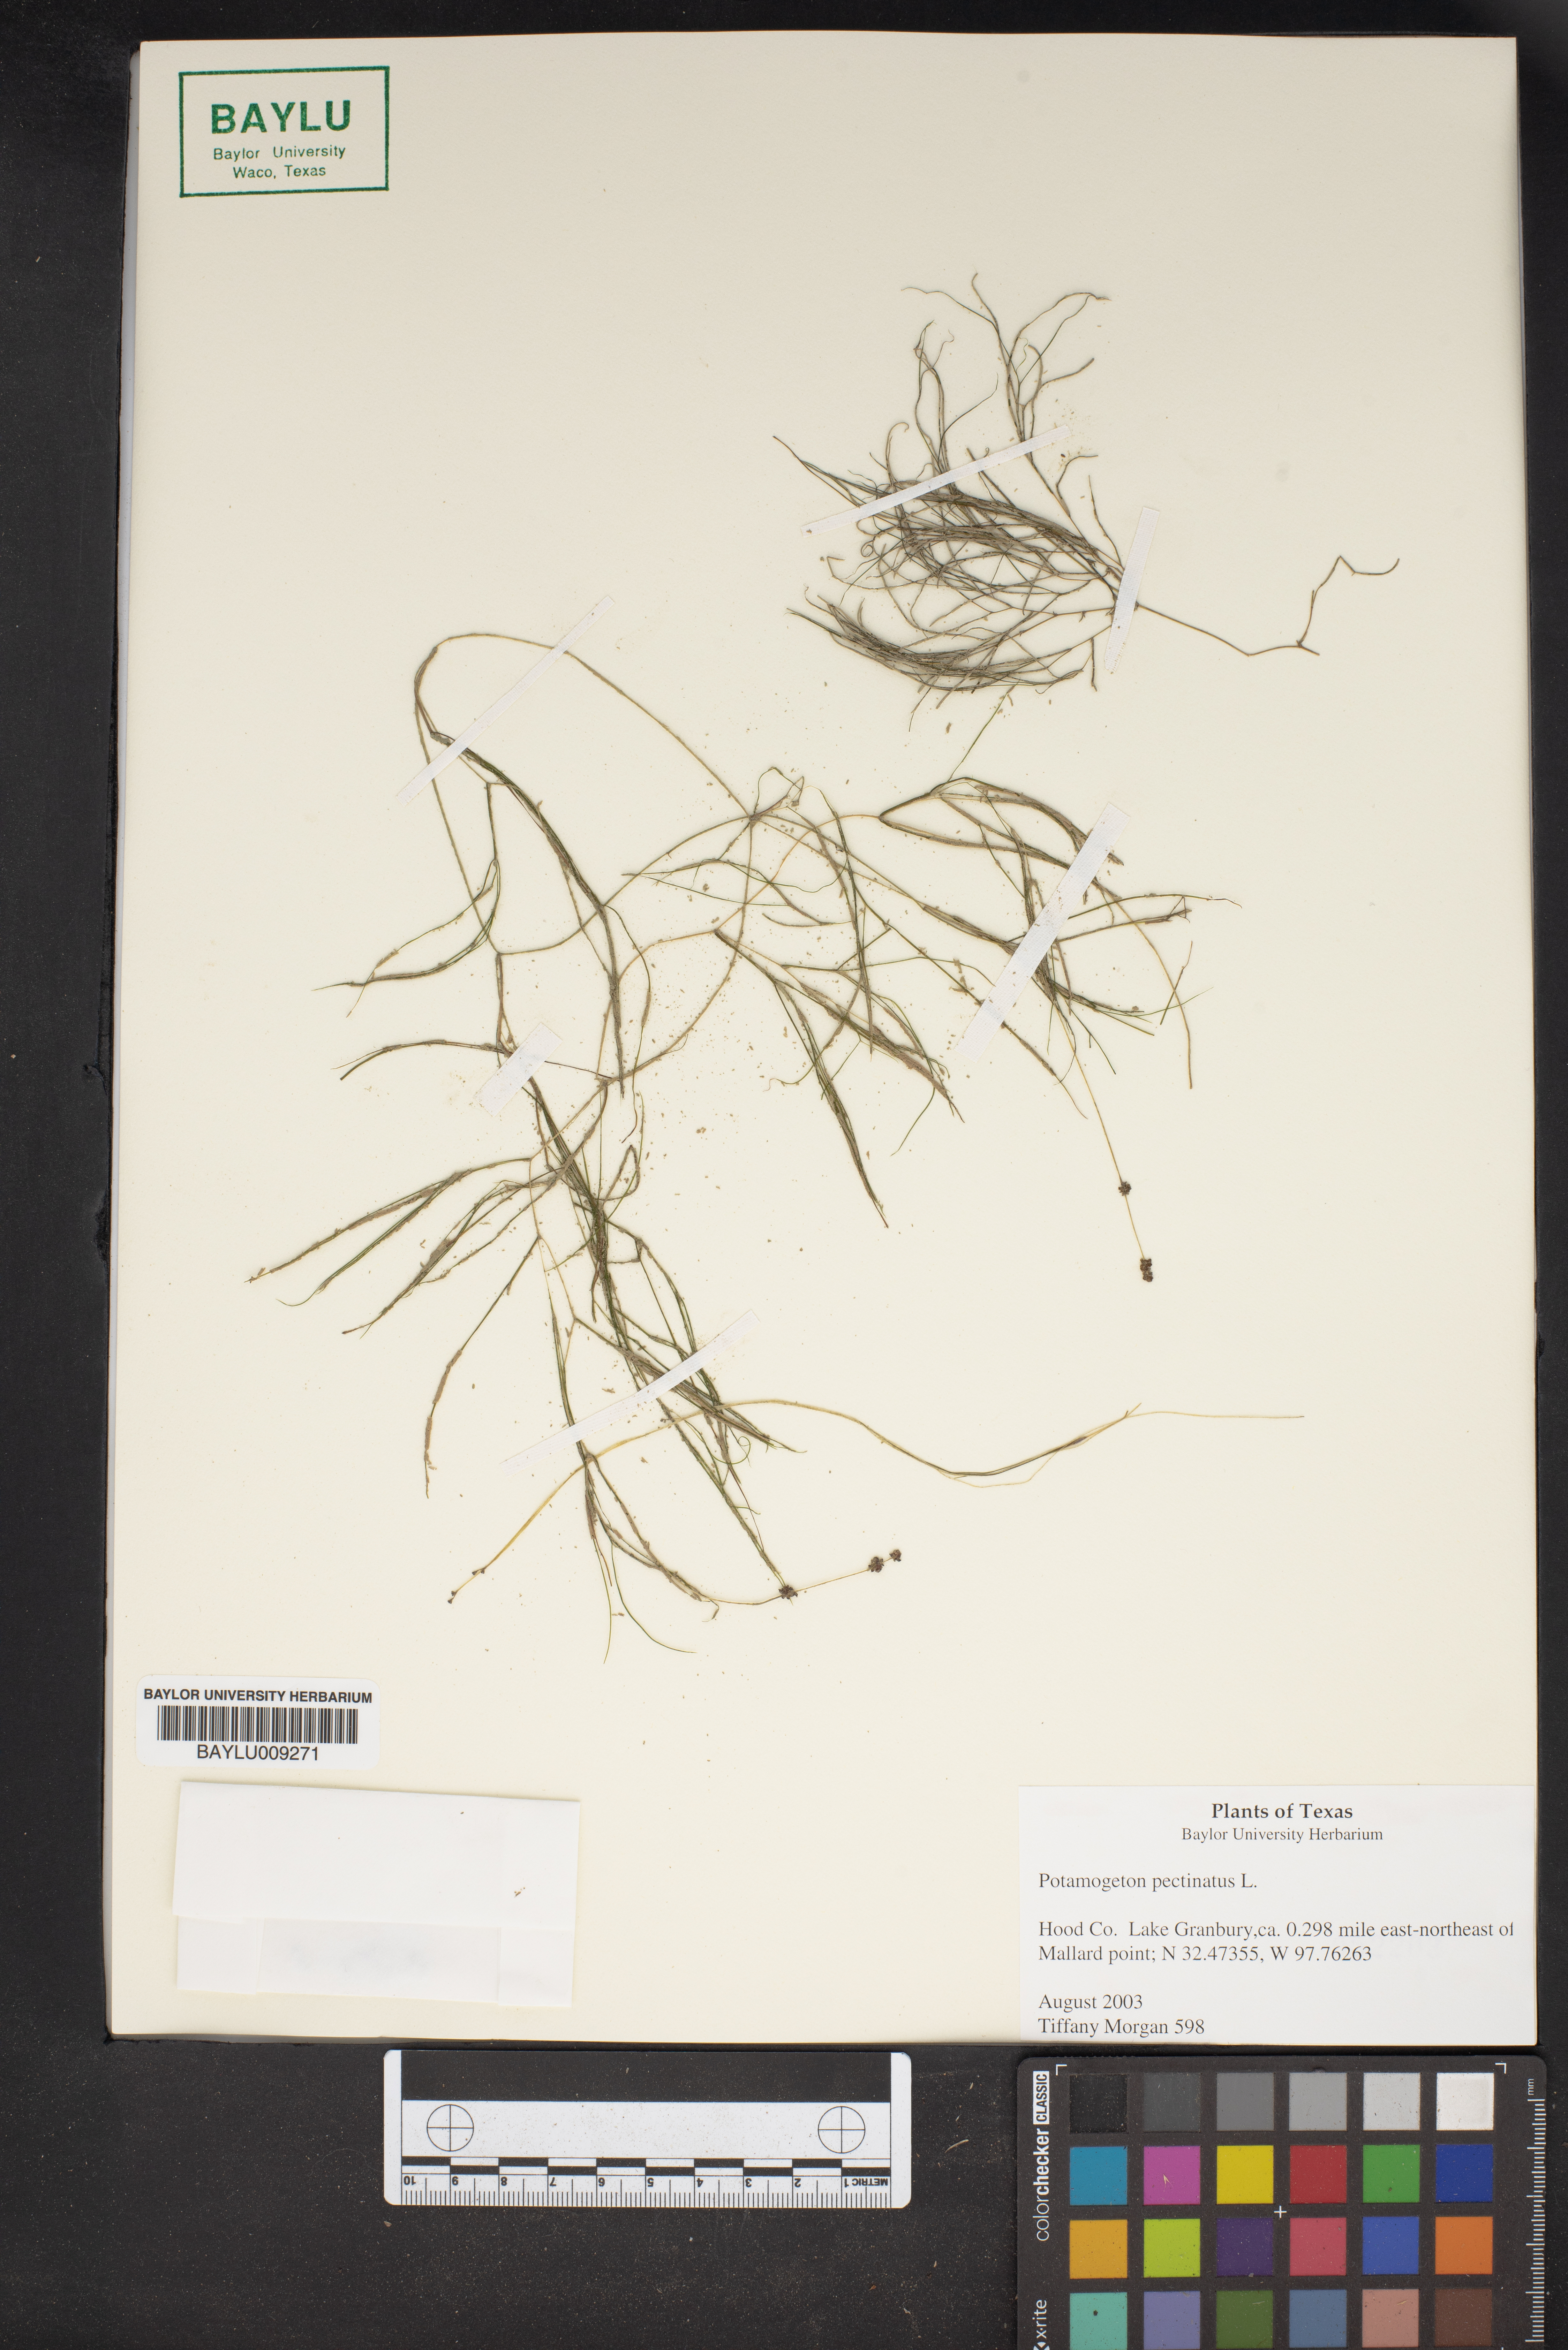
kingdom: Plantae
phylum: Tracheophyta
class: Liliopsida
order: Alismatales
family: Potamogetonaceae
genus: Stuckenia
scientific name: Stuckenia pectinata
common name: Sago pondweed
